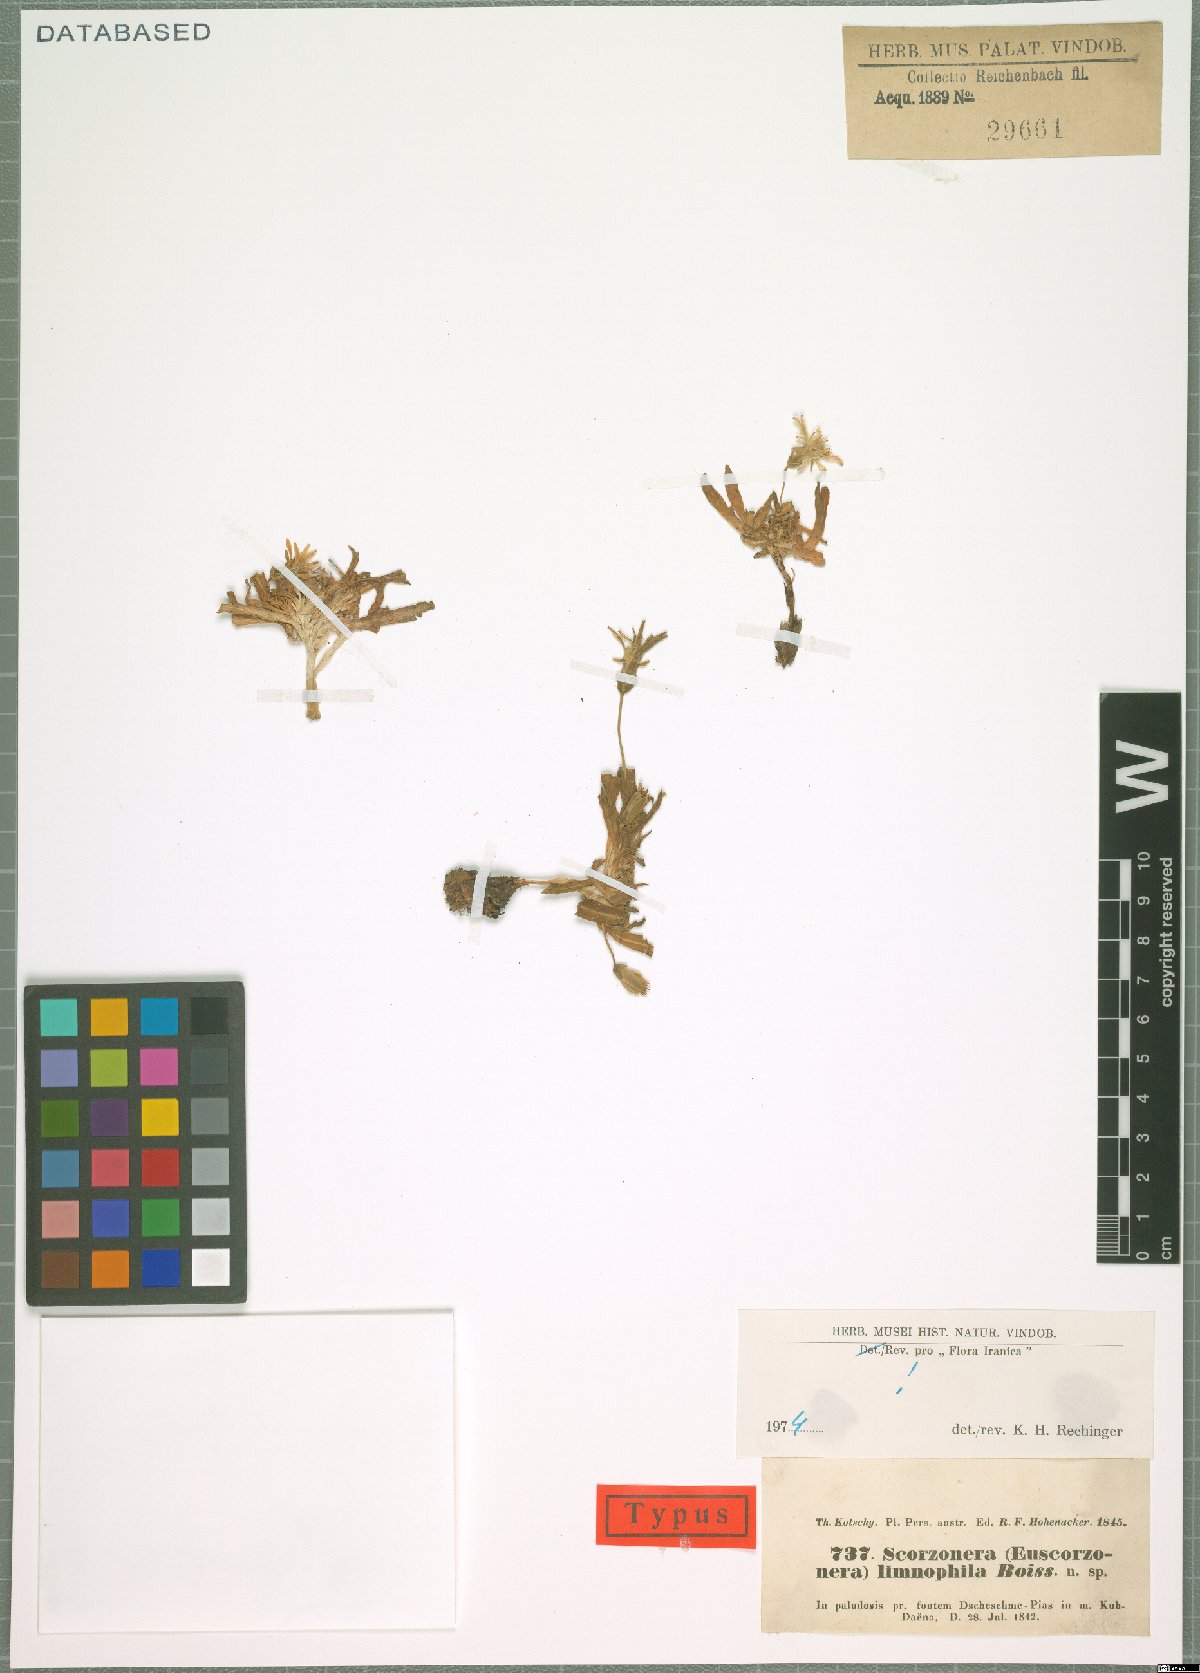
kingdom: Plantae
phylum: Tracheophyta
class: Magnoliopsida
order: Asterales
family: Asteraceae
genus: Scorzonera
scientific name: Scorzonera limnophila
